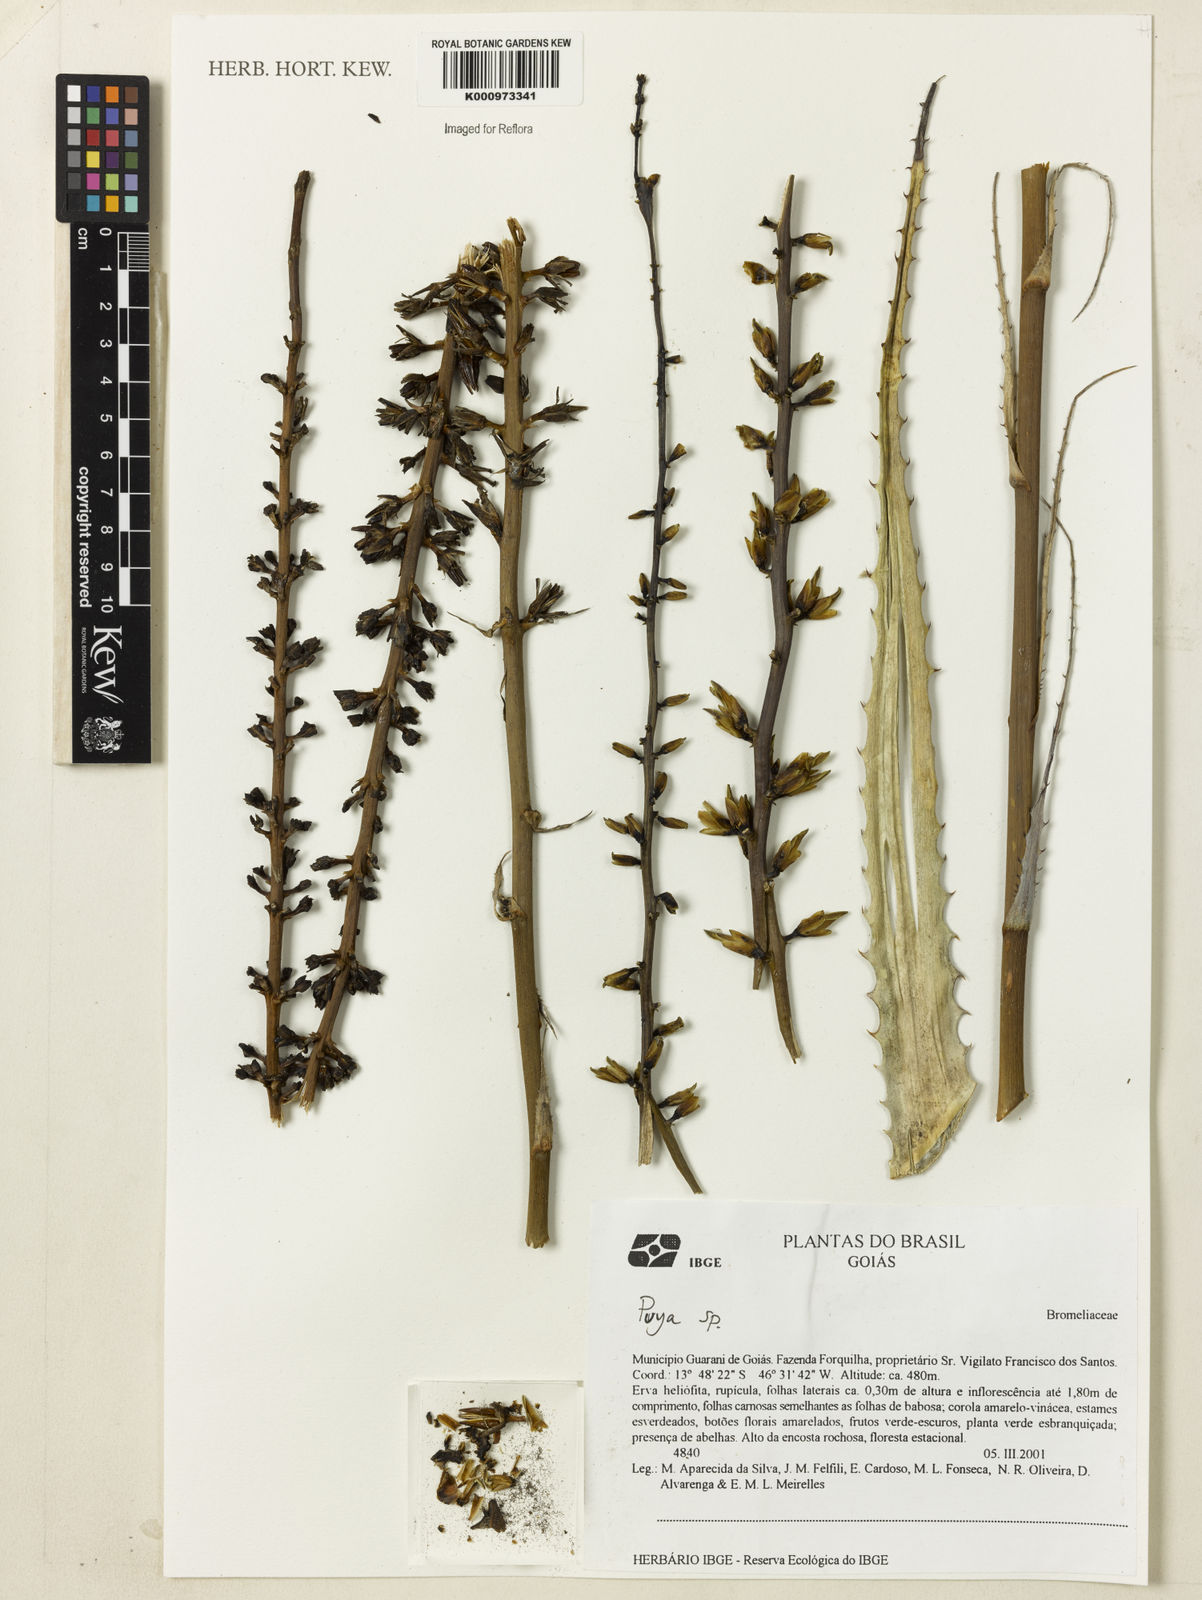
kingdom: Plantae
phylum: Tracheophyta
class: Liliopsida
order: Poales
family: Bromeliaceae
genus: Encholirium
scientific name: Encholirium
